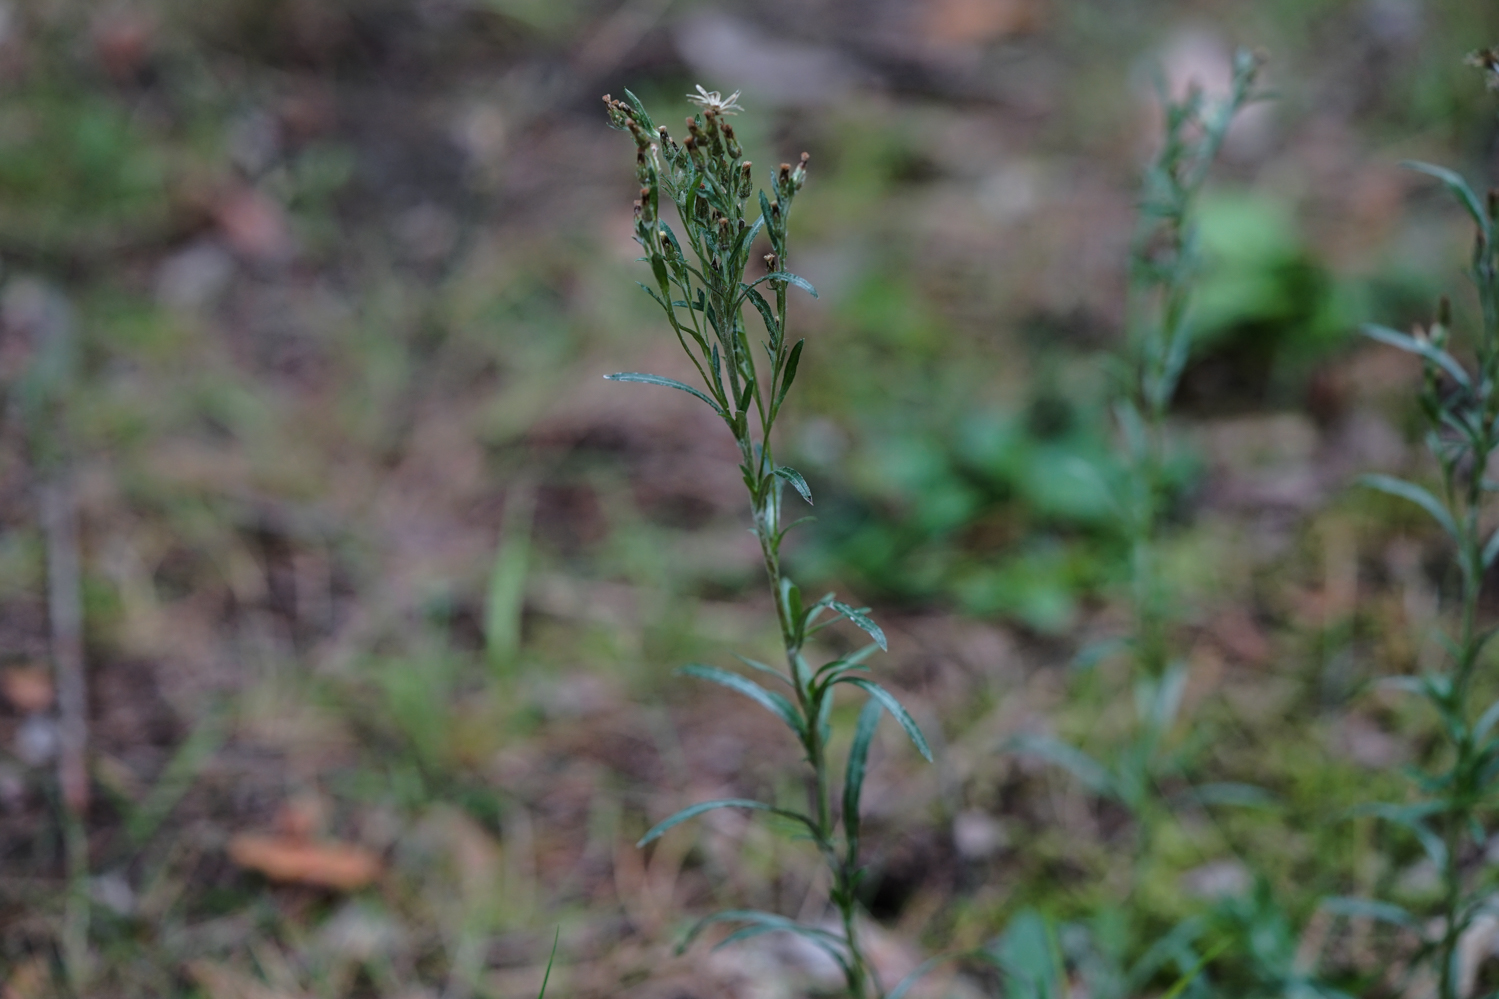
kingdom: Plantae
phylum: Tracheophyta
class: Magnoliopsida
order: Asterales
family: Asteraceae
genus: Gnaphalium
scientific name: Gnaphalium sylvaticum
